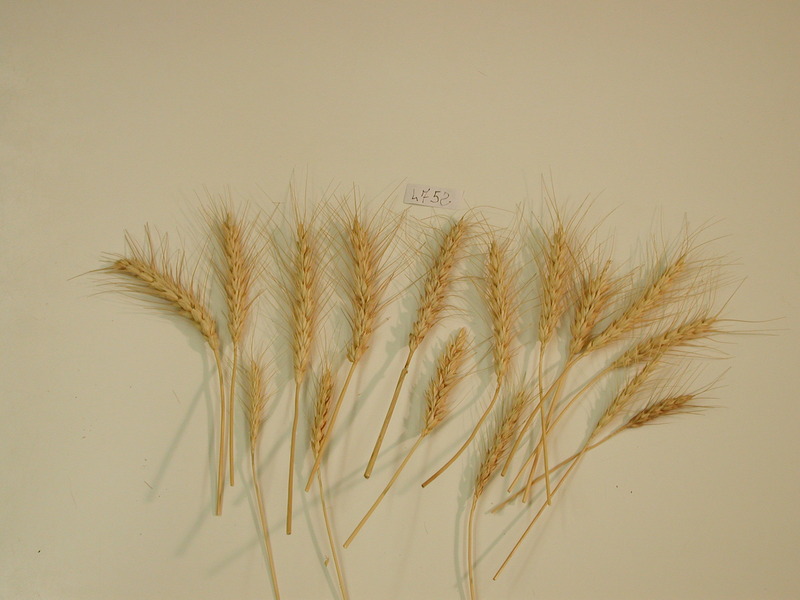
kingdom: Plantae
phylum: Tracheophyta
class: Liliopsida
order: Poales
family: Poaceae
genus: Triticum
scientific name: Triticum aestivum
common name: Wheat
